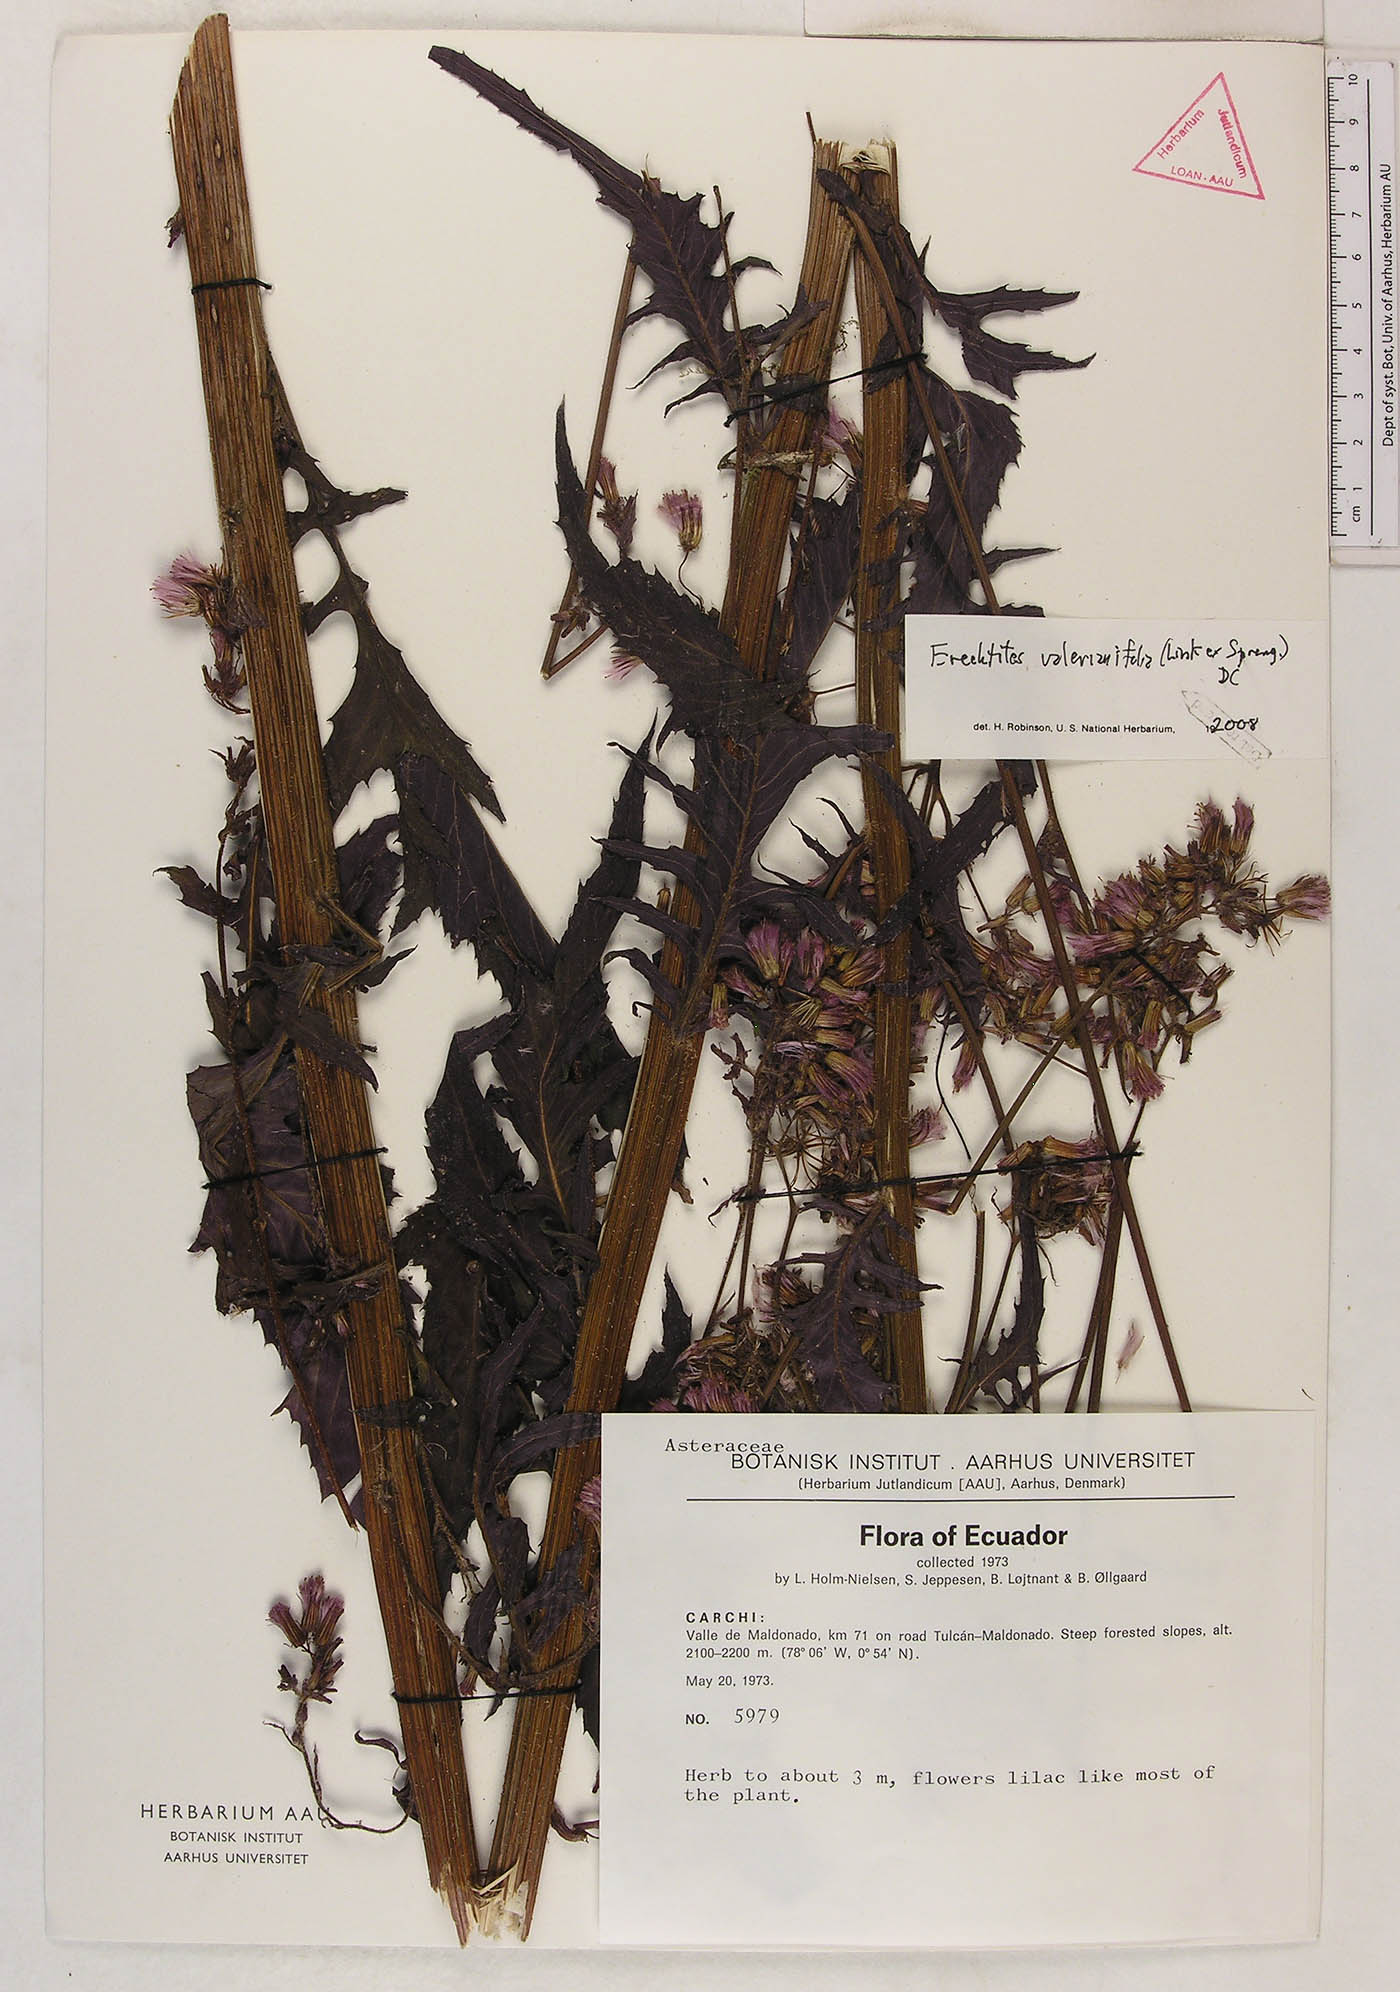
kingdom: Plantae
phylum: Tracheophyta
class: Magnoliopsida
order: Asterales
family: Asteraceae
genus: Erechtites
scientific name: Erechtites valerianifolius
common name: Tropical burnweed
